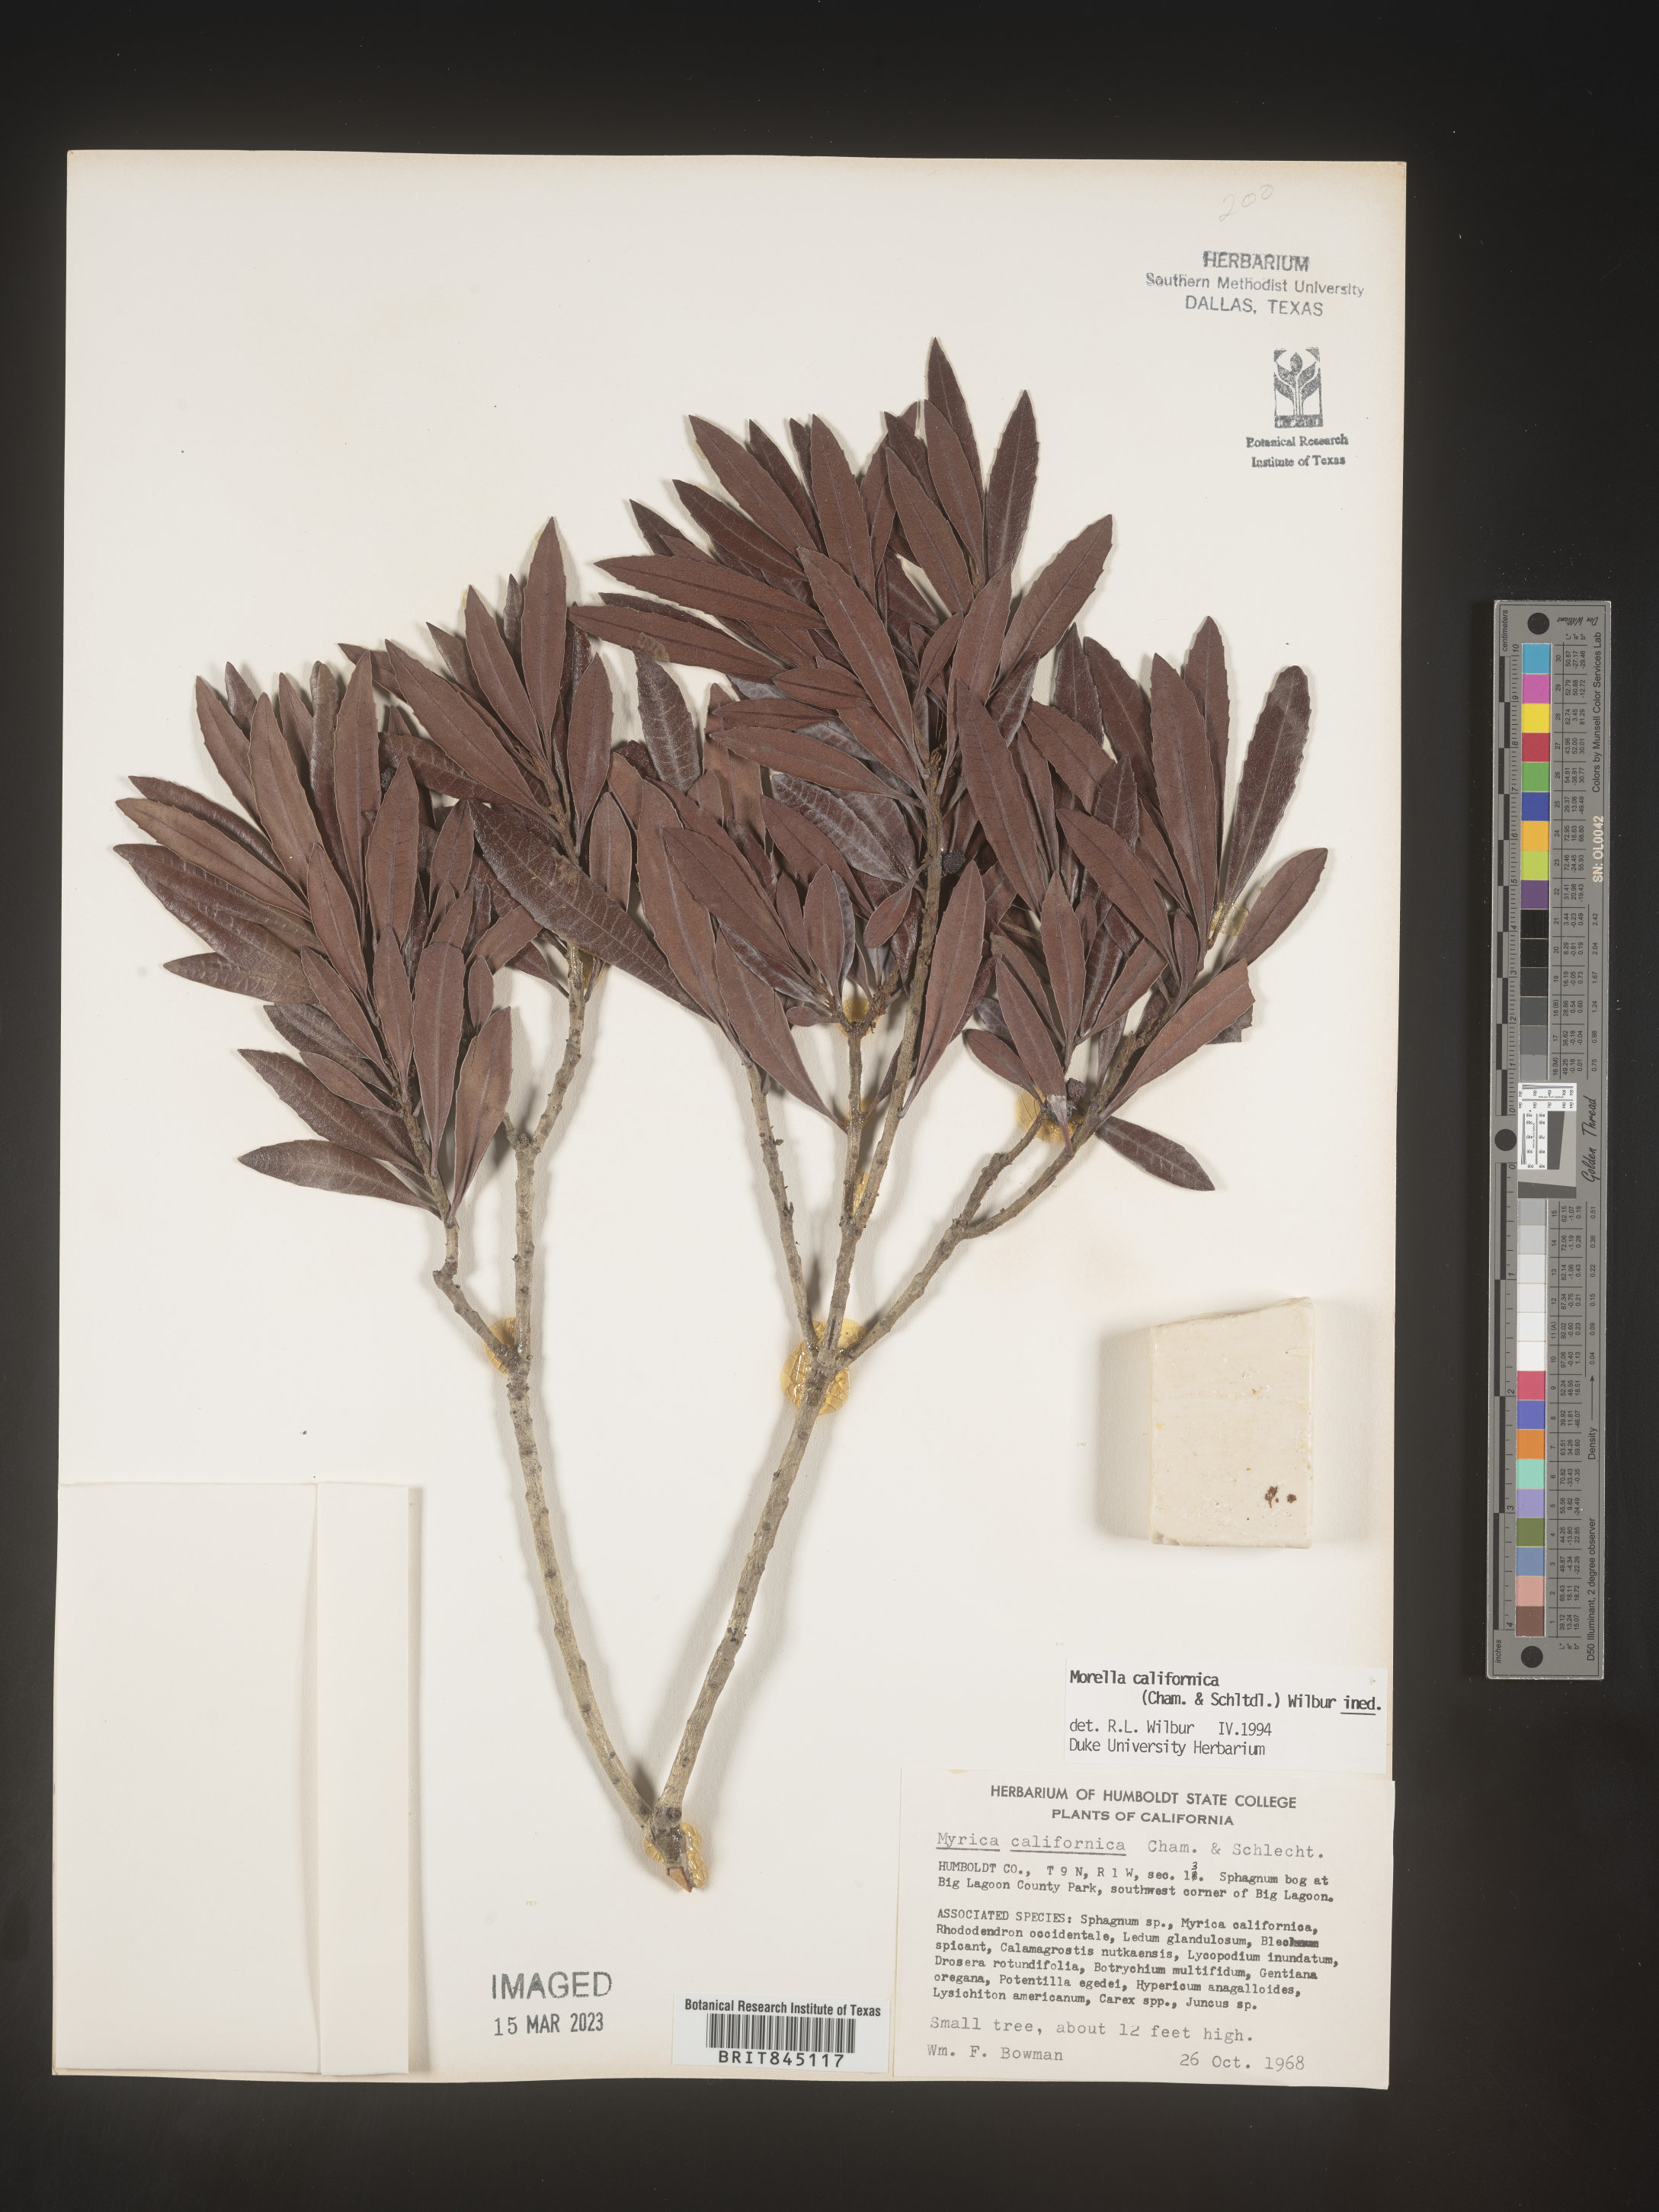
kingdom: Plantae
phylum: Tracheophyta
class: Magnoliopsida
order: Fagales
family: Myricaceae
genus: Morella
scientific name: Morella californica
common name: California wax-myrtle
